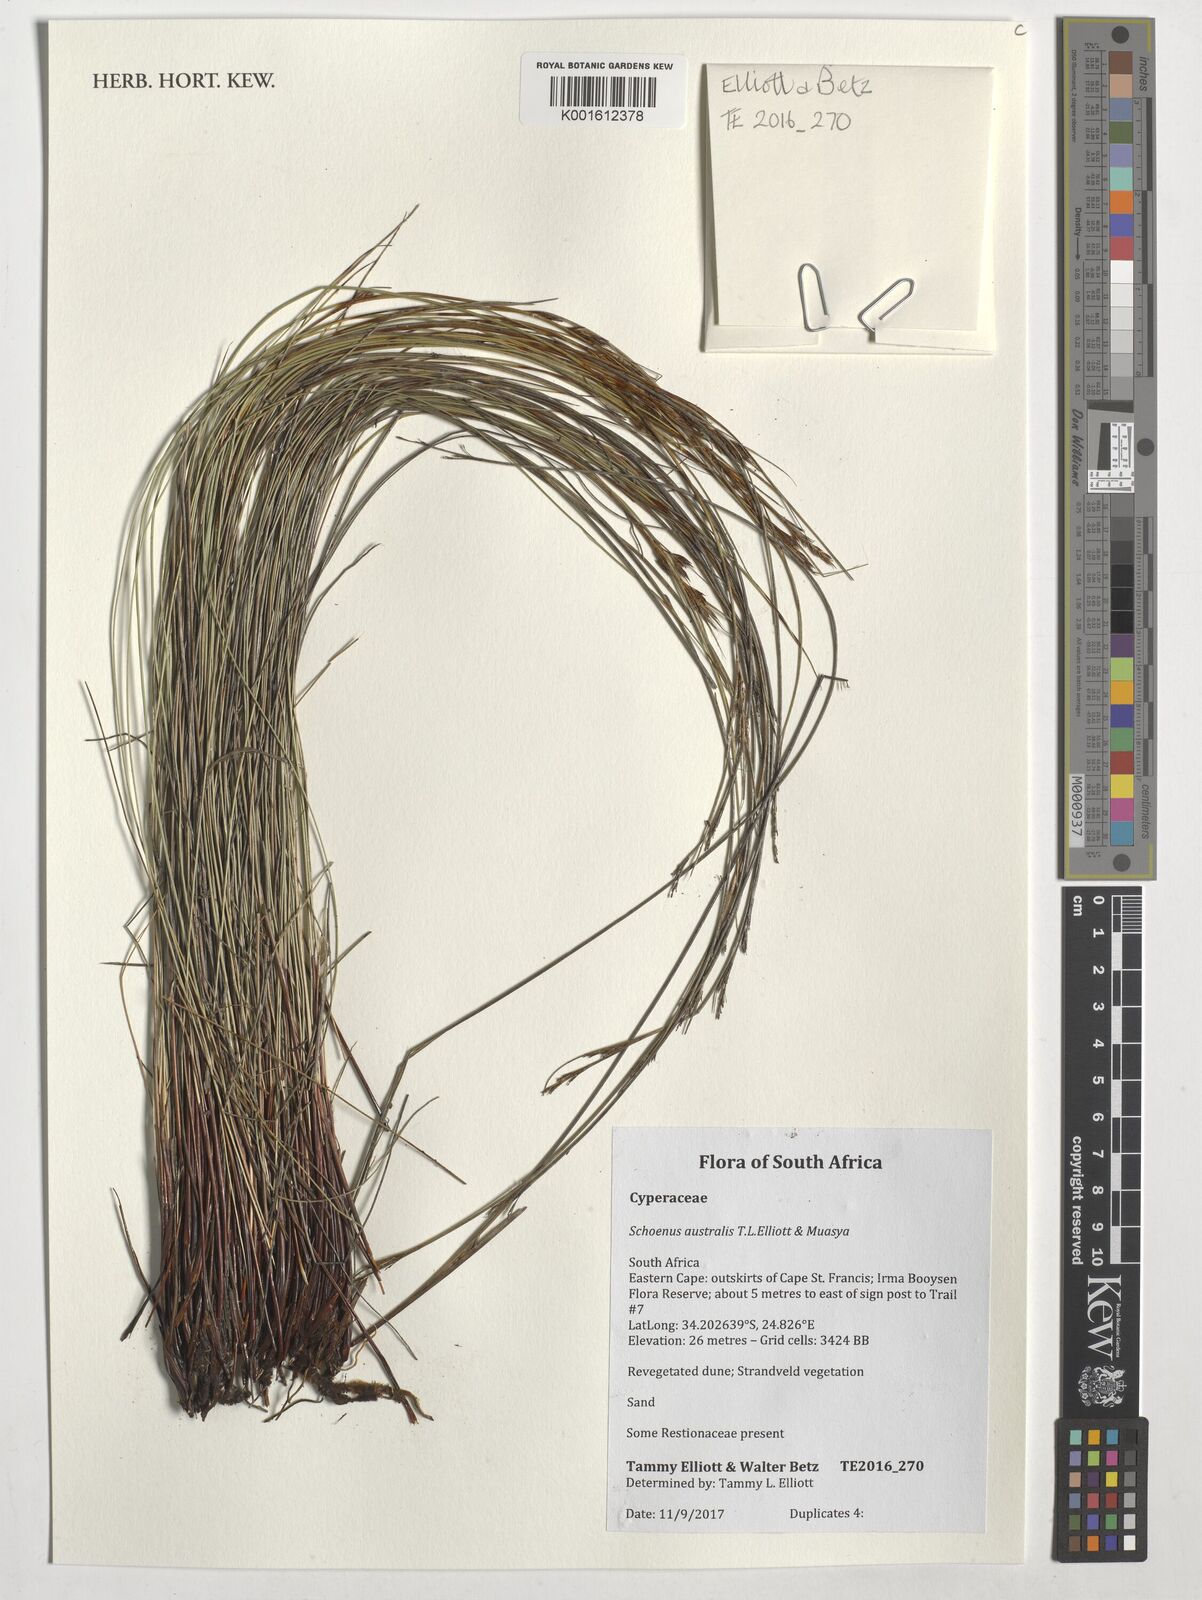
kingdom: Plantae
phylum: Tracheophyta
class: Liliopsida
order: Poales
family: Cyperaceae
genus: Schoenus
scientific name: Schoenus
